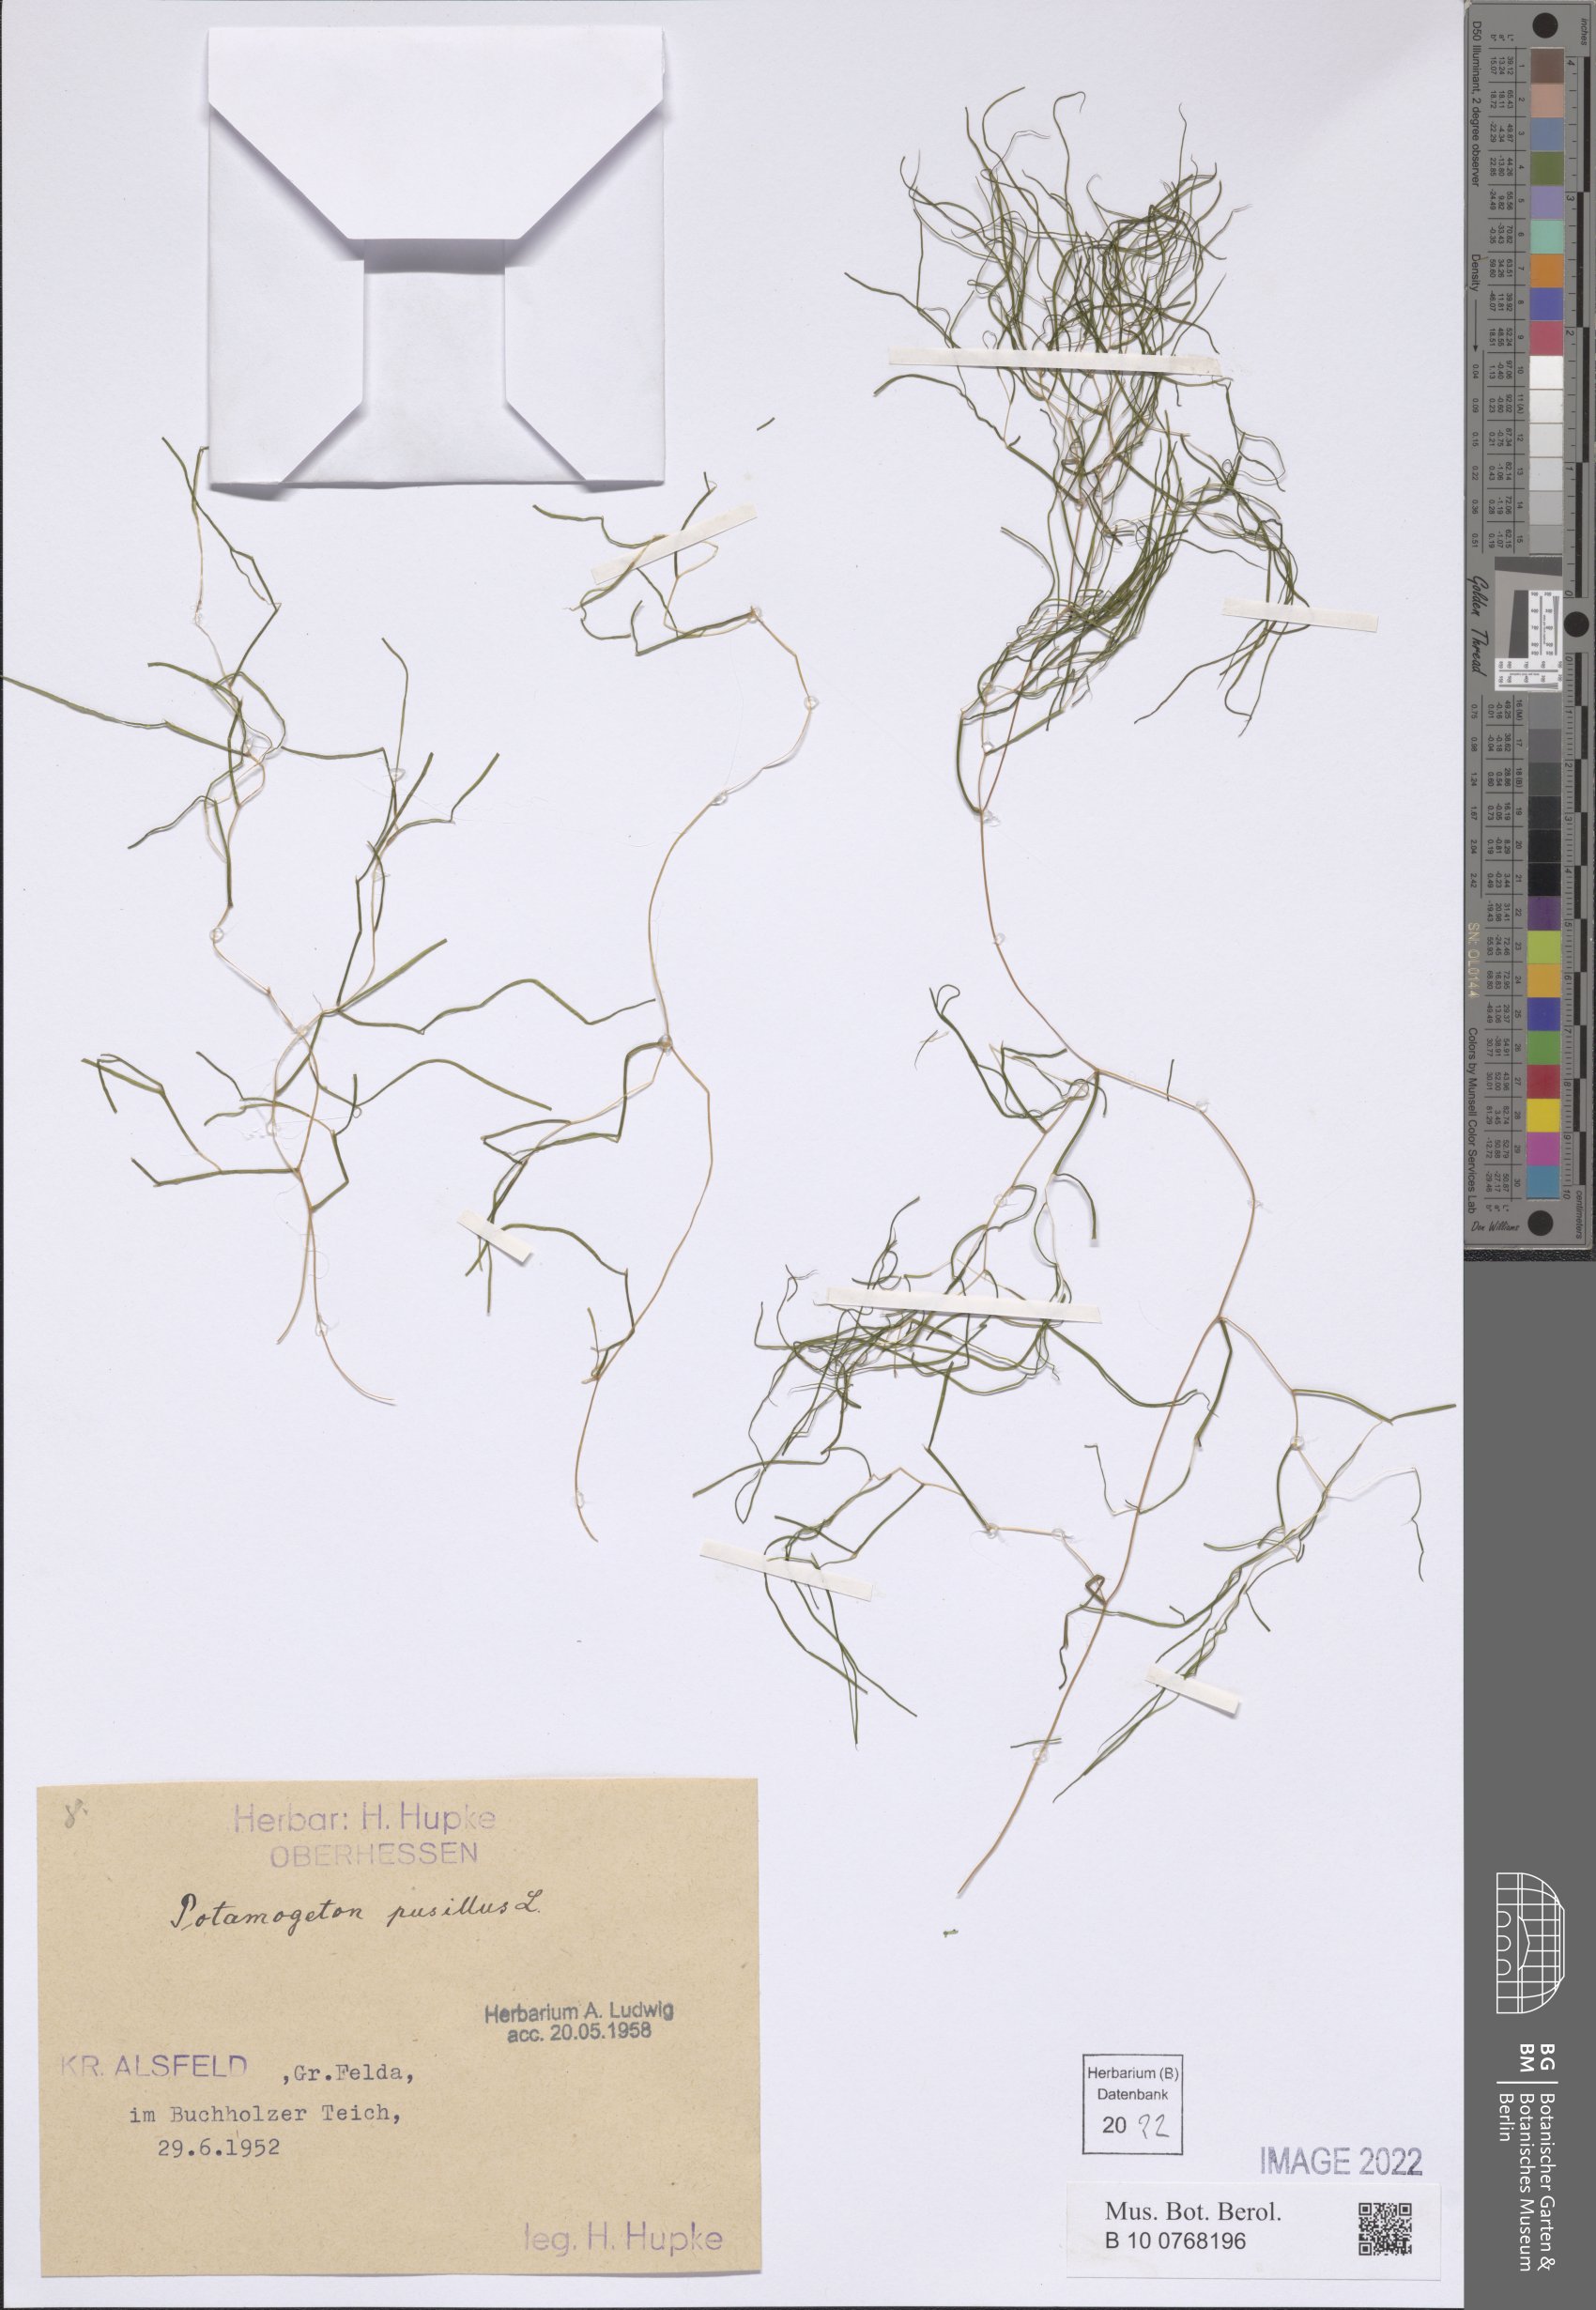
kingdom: Plantae
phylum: Tracheophyta
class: Liliopsida
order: Alismatales
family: Potamogetonaceae
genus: Potamogeton
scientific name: Potamogeton pusillus
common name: Lesser pondweed
